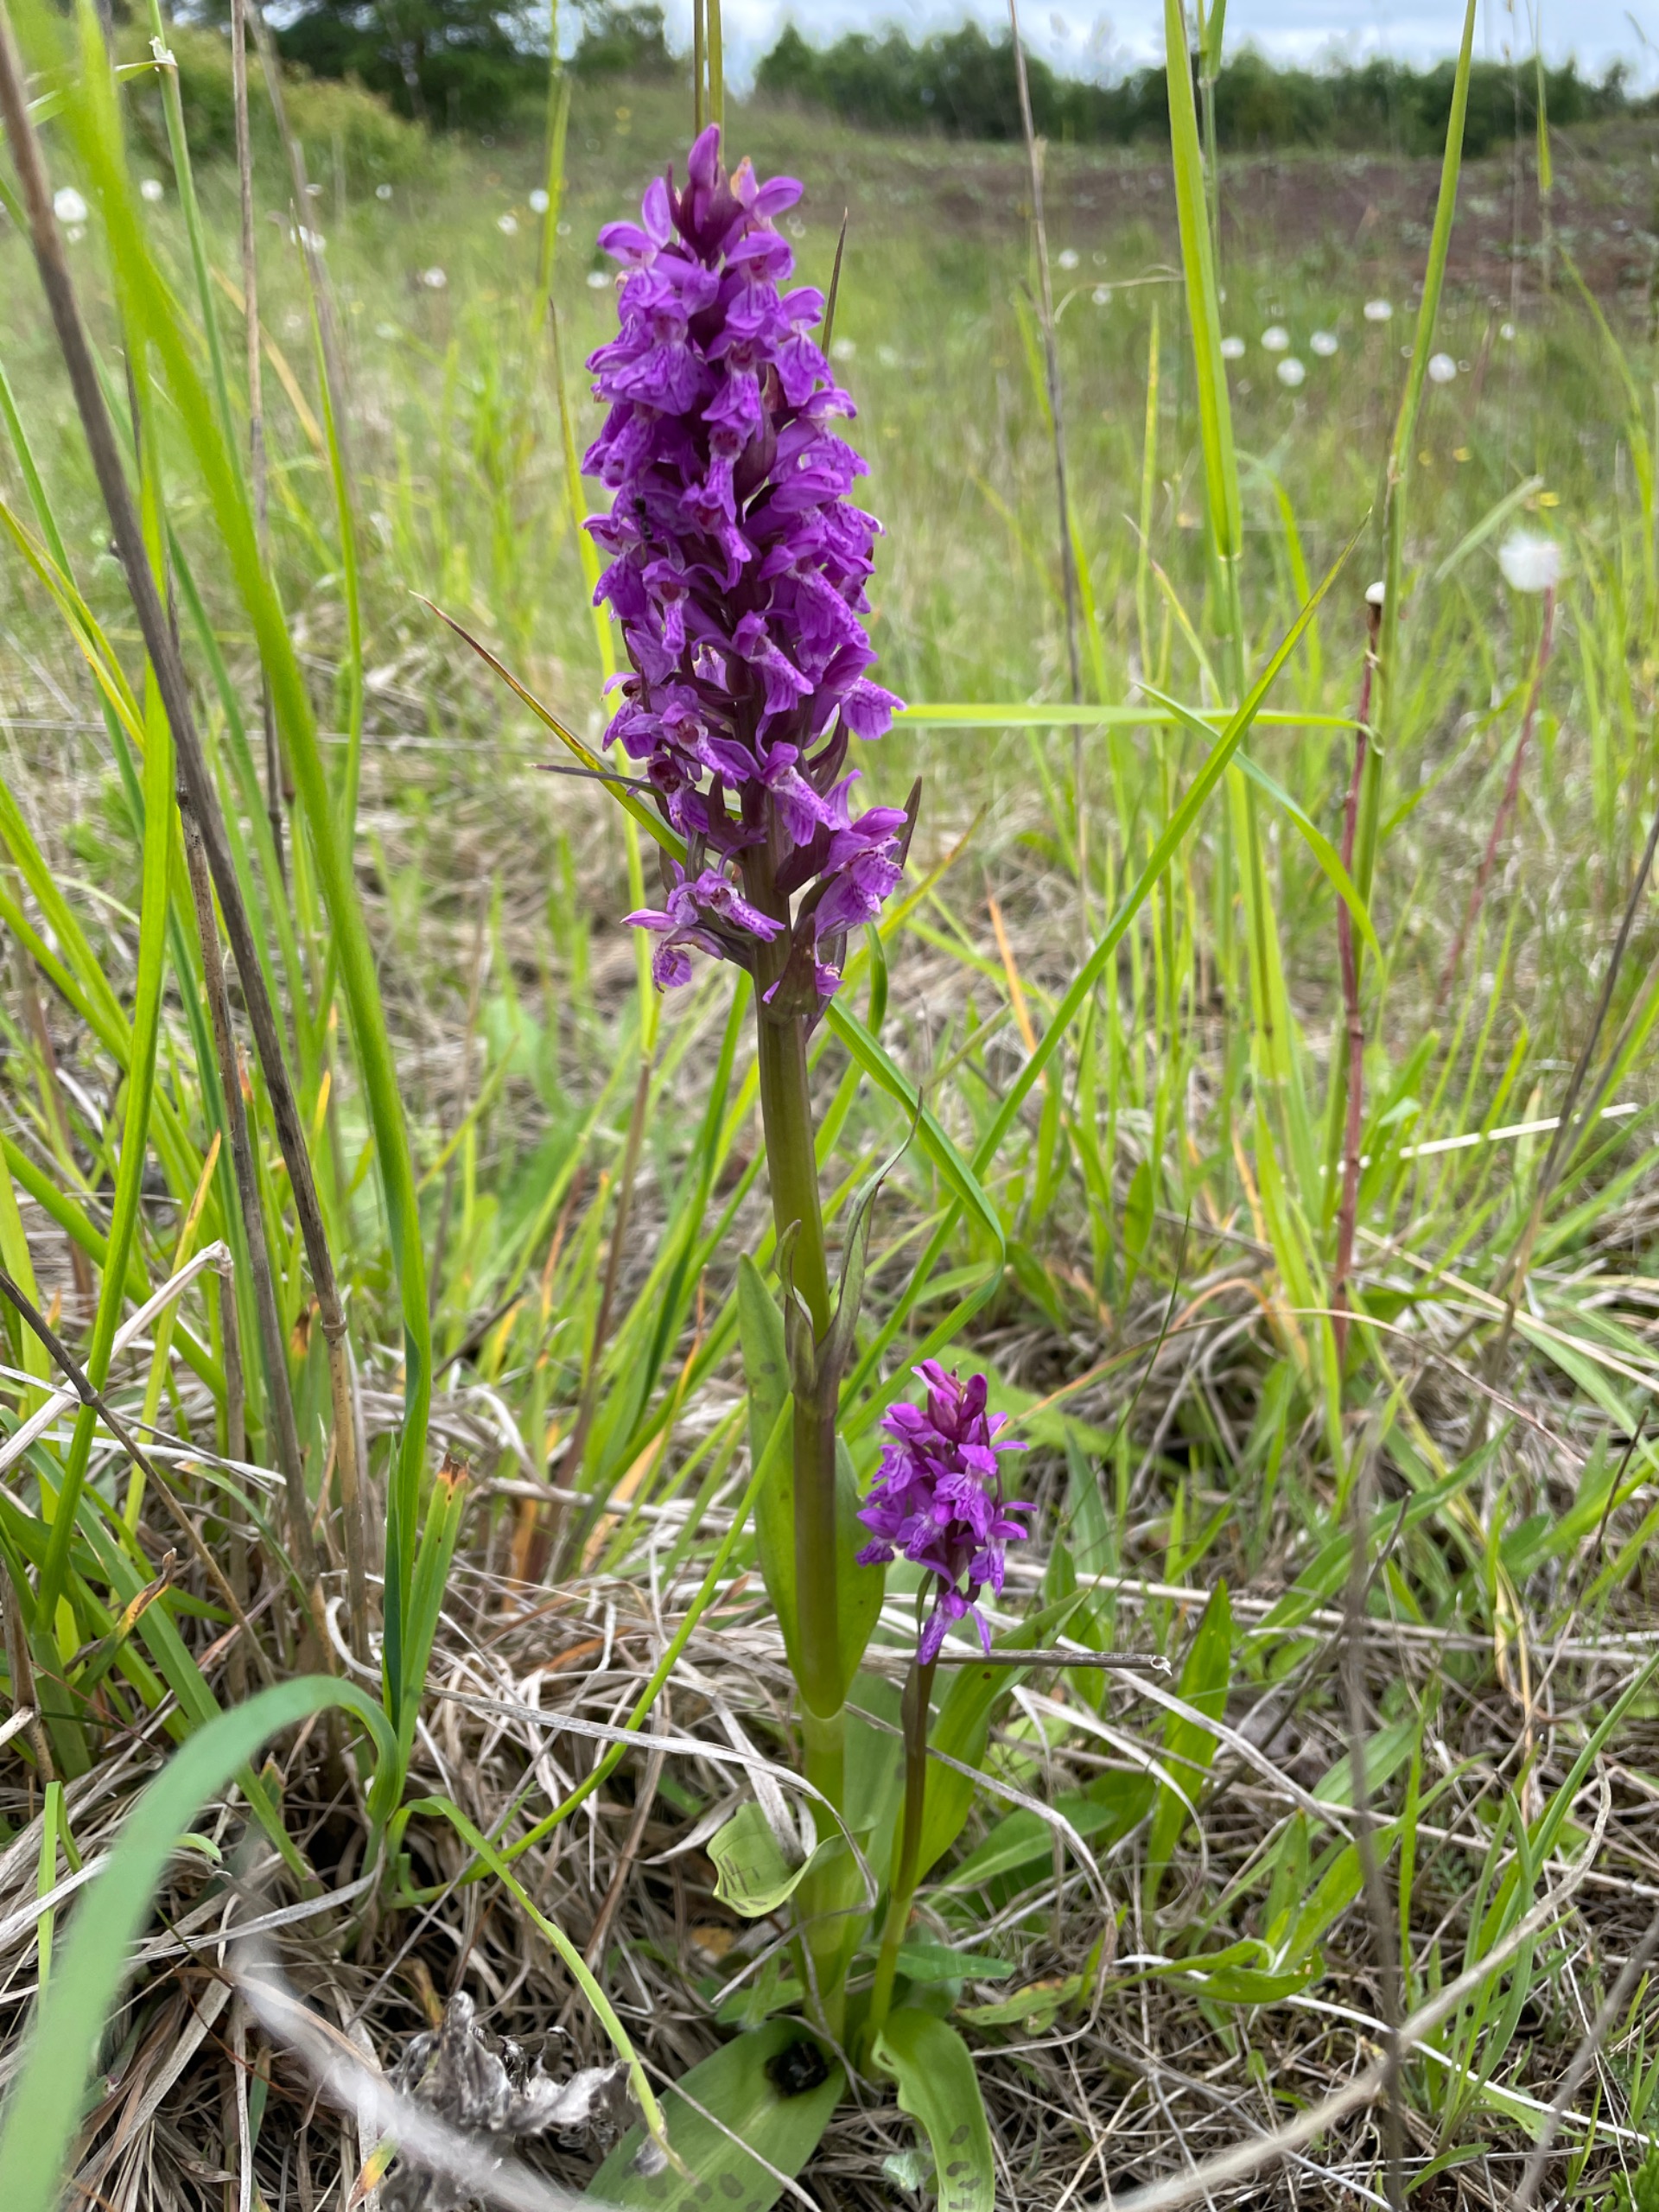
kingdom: Plantae
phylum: Tracheophyta
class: Liliopsida
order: Asparagales
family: Orchidaceae
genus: Dactylorhiza
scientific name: Dactylorhiza majalis
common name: Maj-gøgeurt
